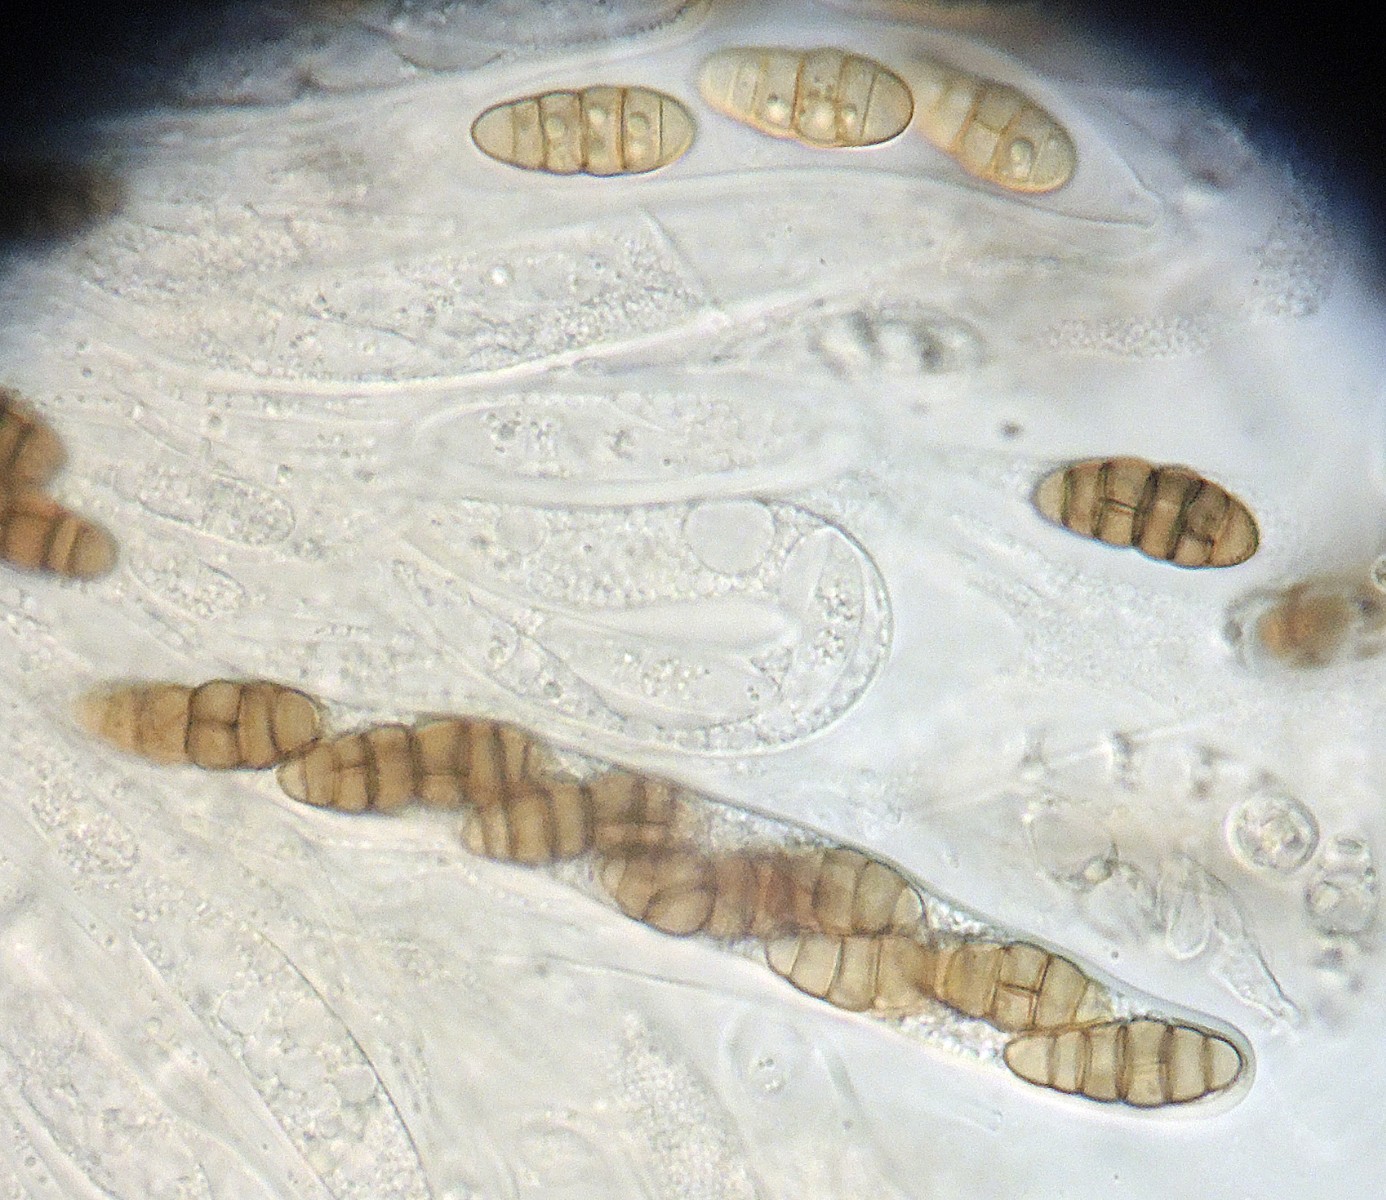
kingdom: Fungi
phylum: Ascomycota
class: Dothideomycetes
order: Pleosporales
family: Lophiostomataceae
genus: Lophiostoma
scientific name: Lophiostoma compressum
